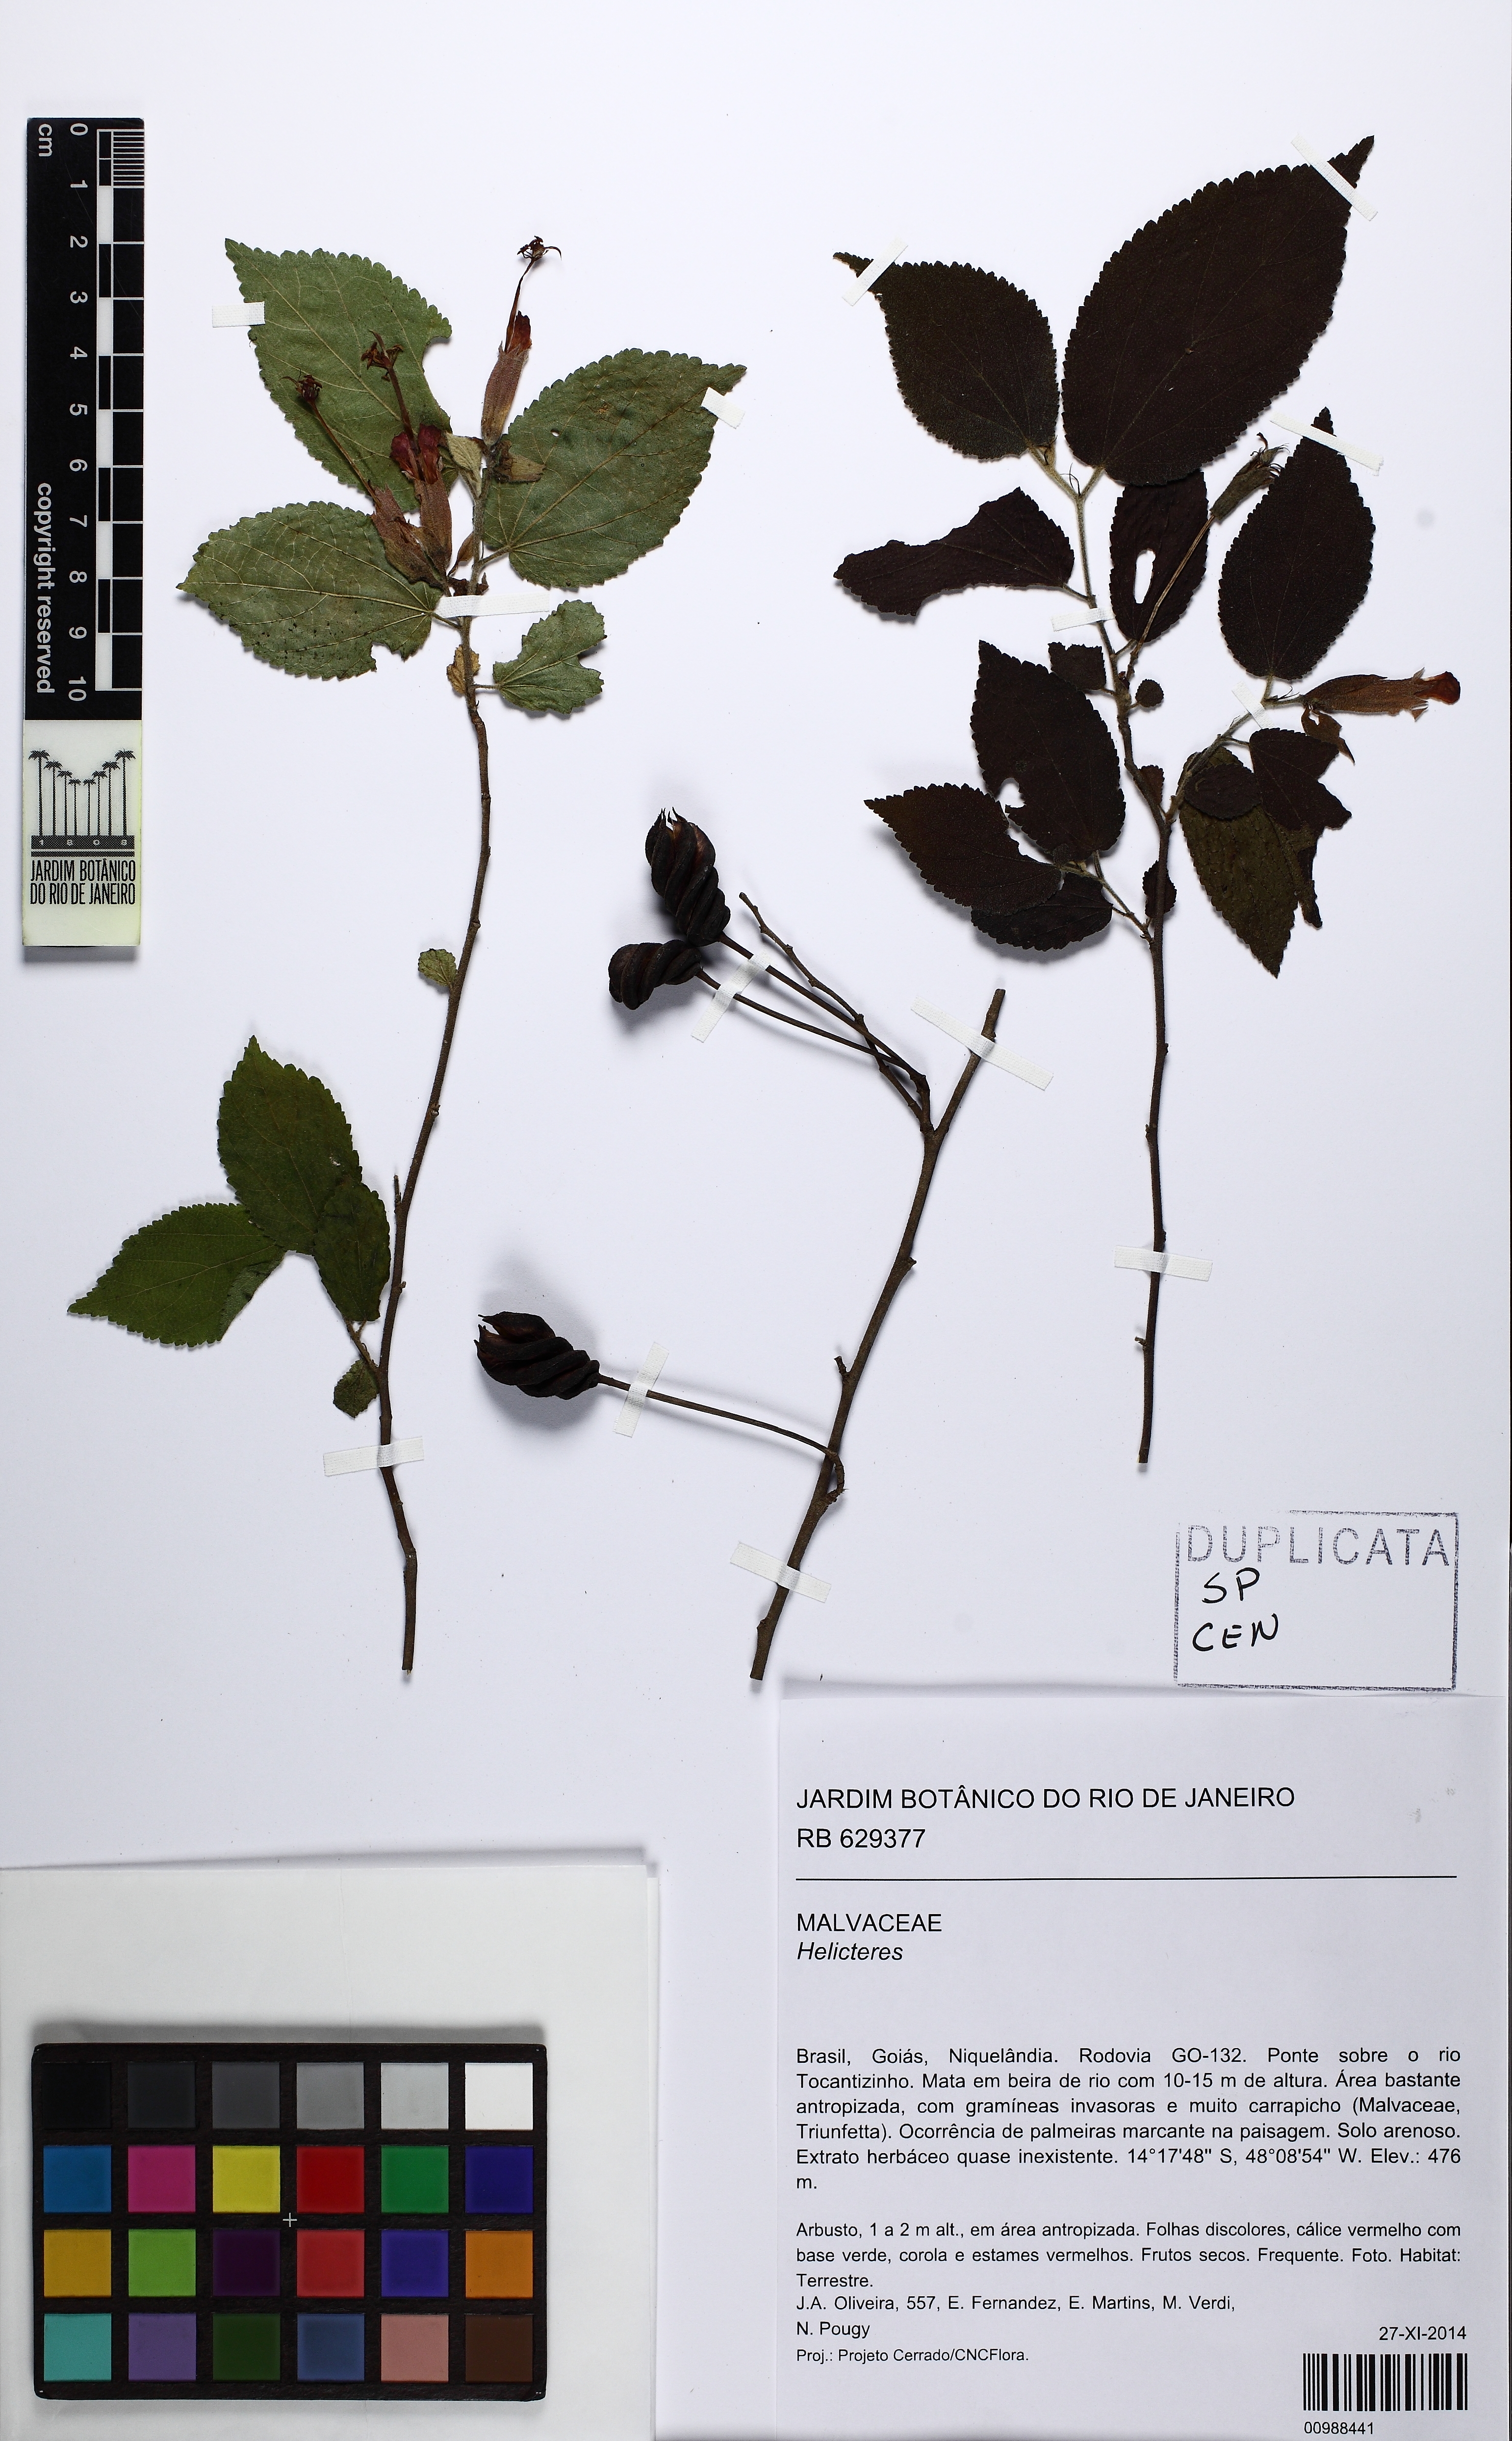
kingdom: Plantae
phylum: Tracheophyta
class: Magnoliopsida
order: Malvales
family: Malvaceae
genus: Helicteres
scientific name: Helicteres
